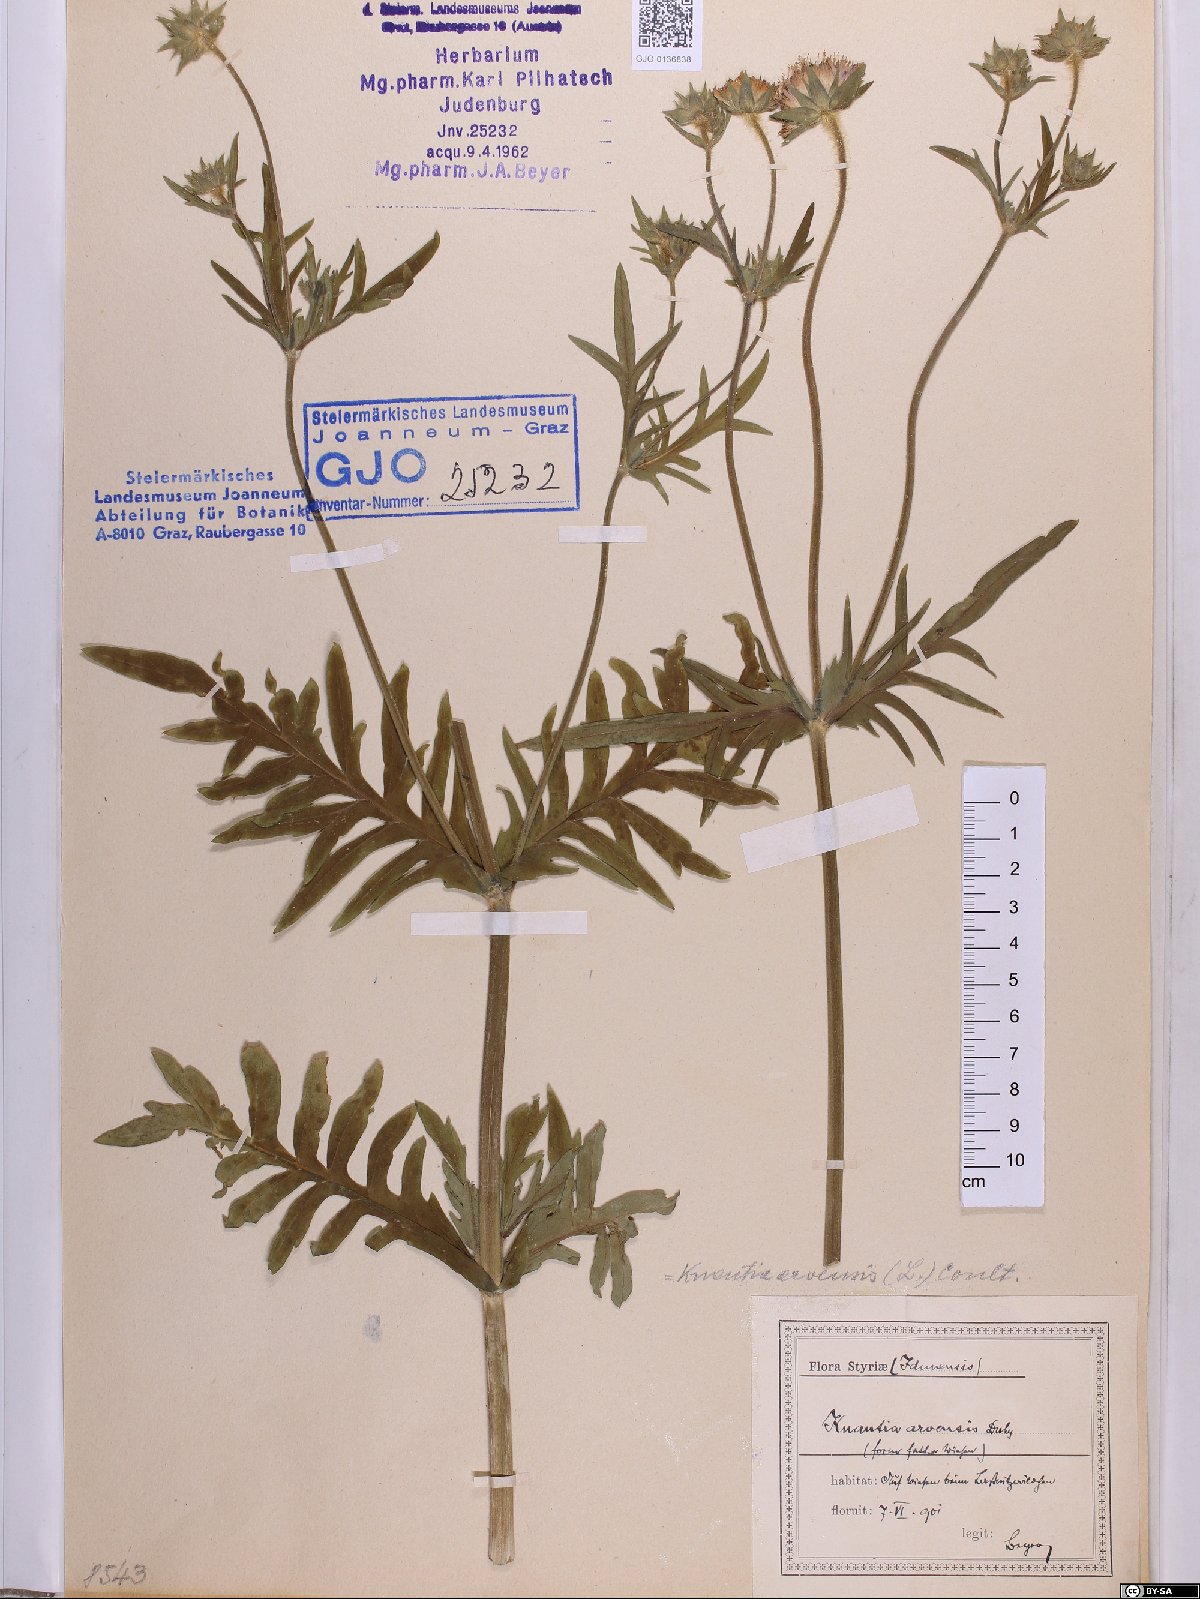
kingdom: Plantae
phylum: Tracheophyta
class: Magnoliopsida
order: Dipsacales
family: Caprifoliaceae
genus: Knautia
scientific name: Knautia arvensis
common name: Field scabiosa
